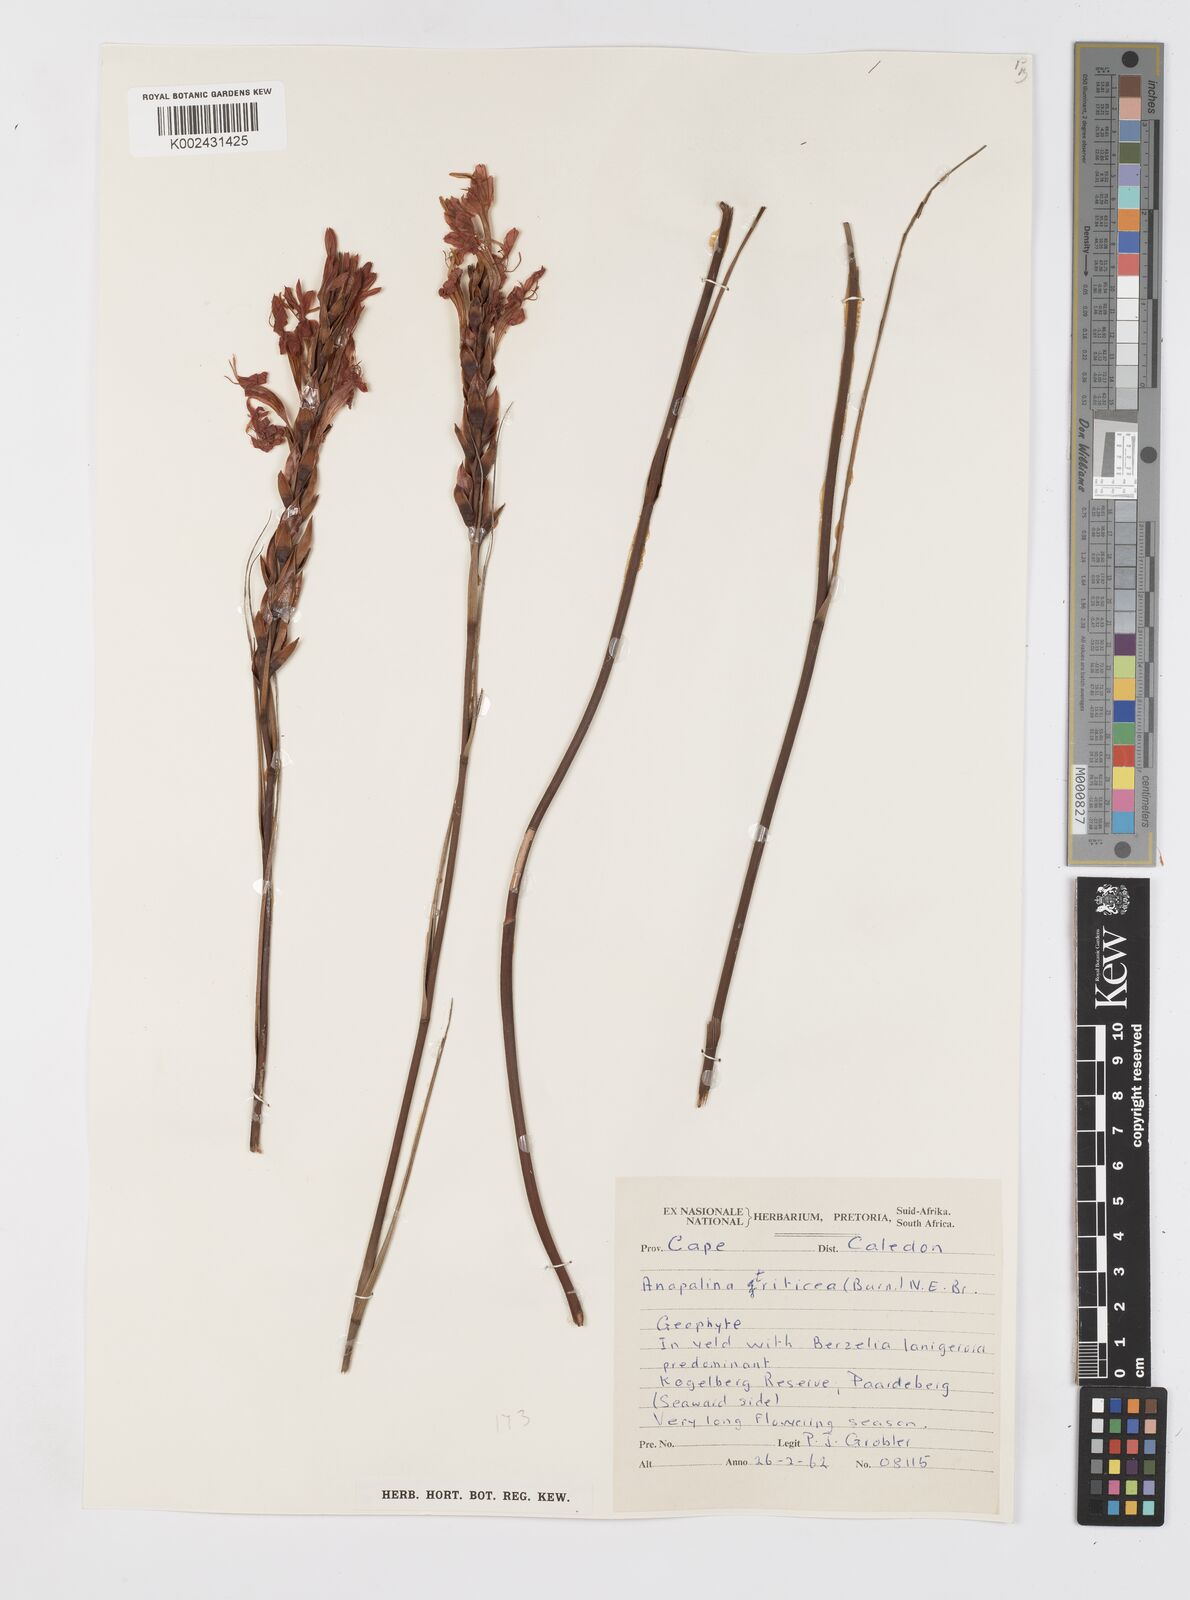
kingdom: Plantae
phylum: Tracheophyta
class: Liliopsida
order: Asparagales
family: Iridaceae
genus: Tritoniopsis
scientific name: Tritoniopsis triticea
